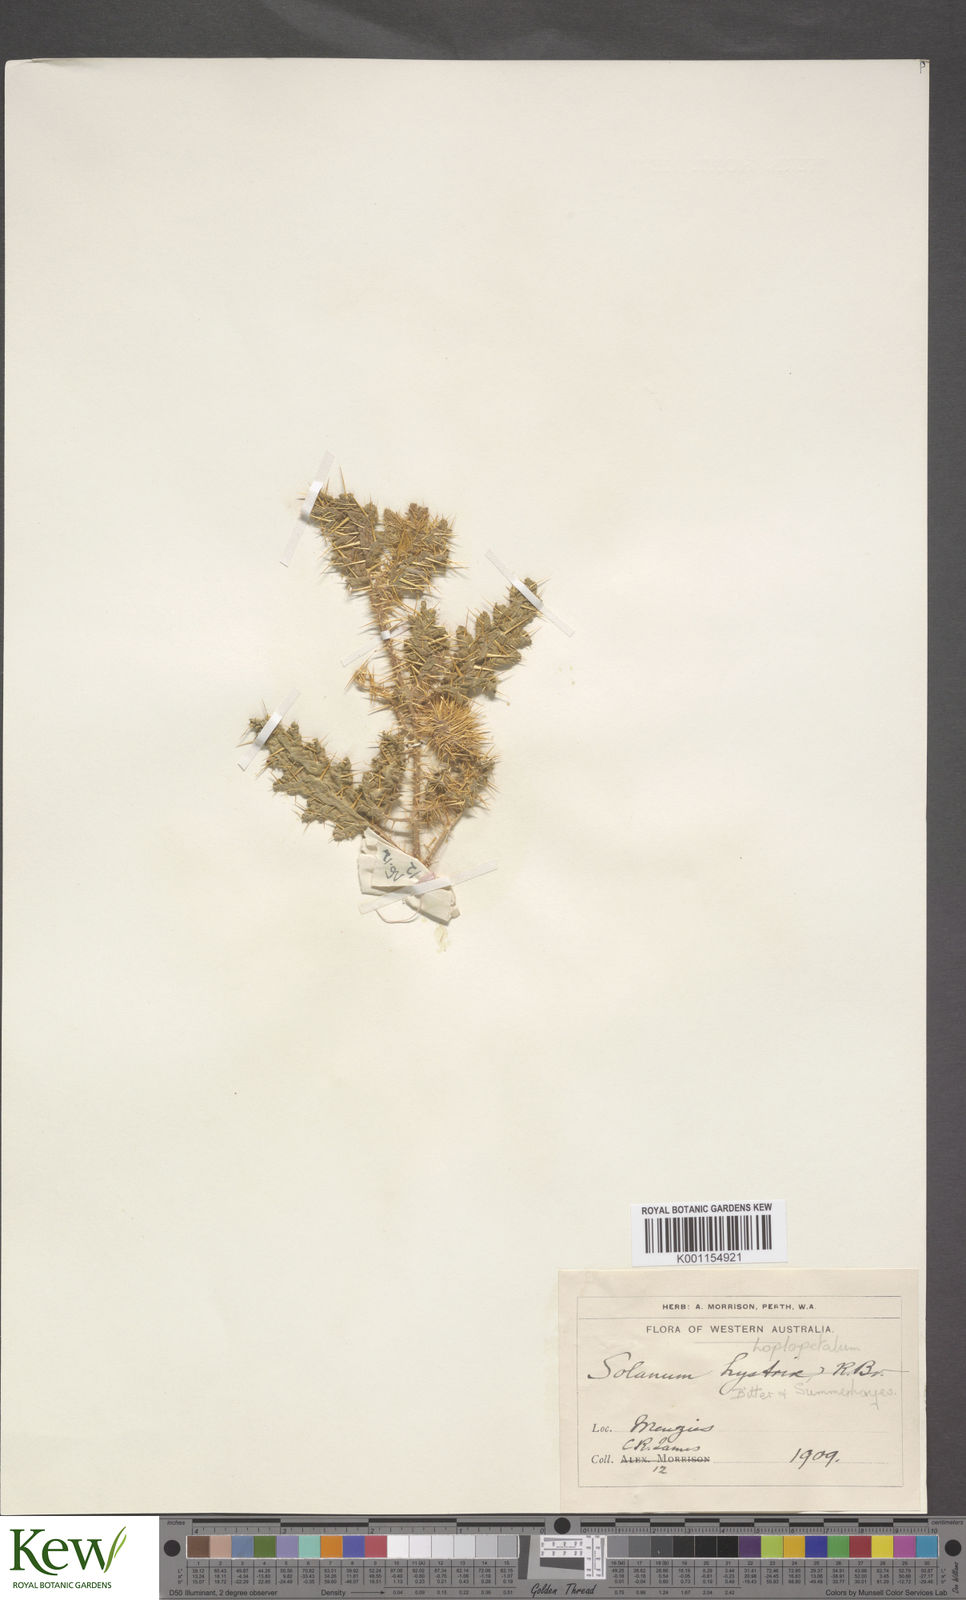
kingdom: Plantae
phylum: Tracheophyta
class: Magnoliopsida
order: Solanales
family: Solanaceae
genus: Solanum
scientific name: Solanum hoplopetalum
